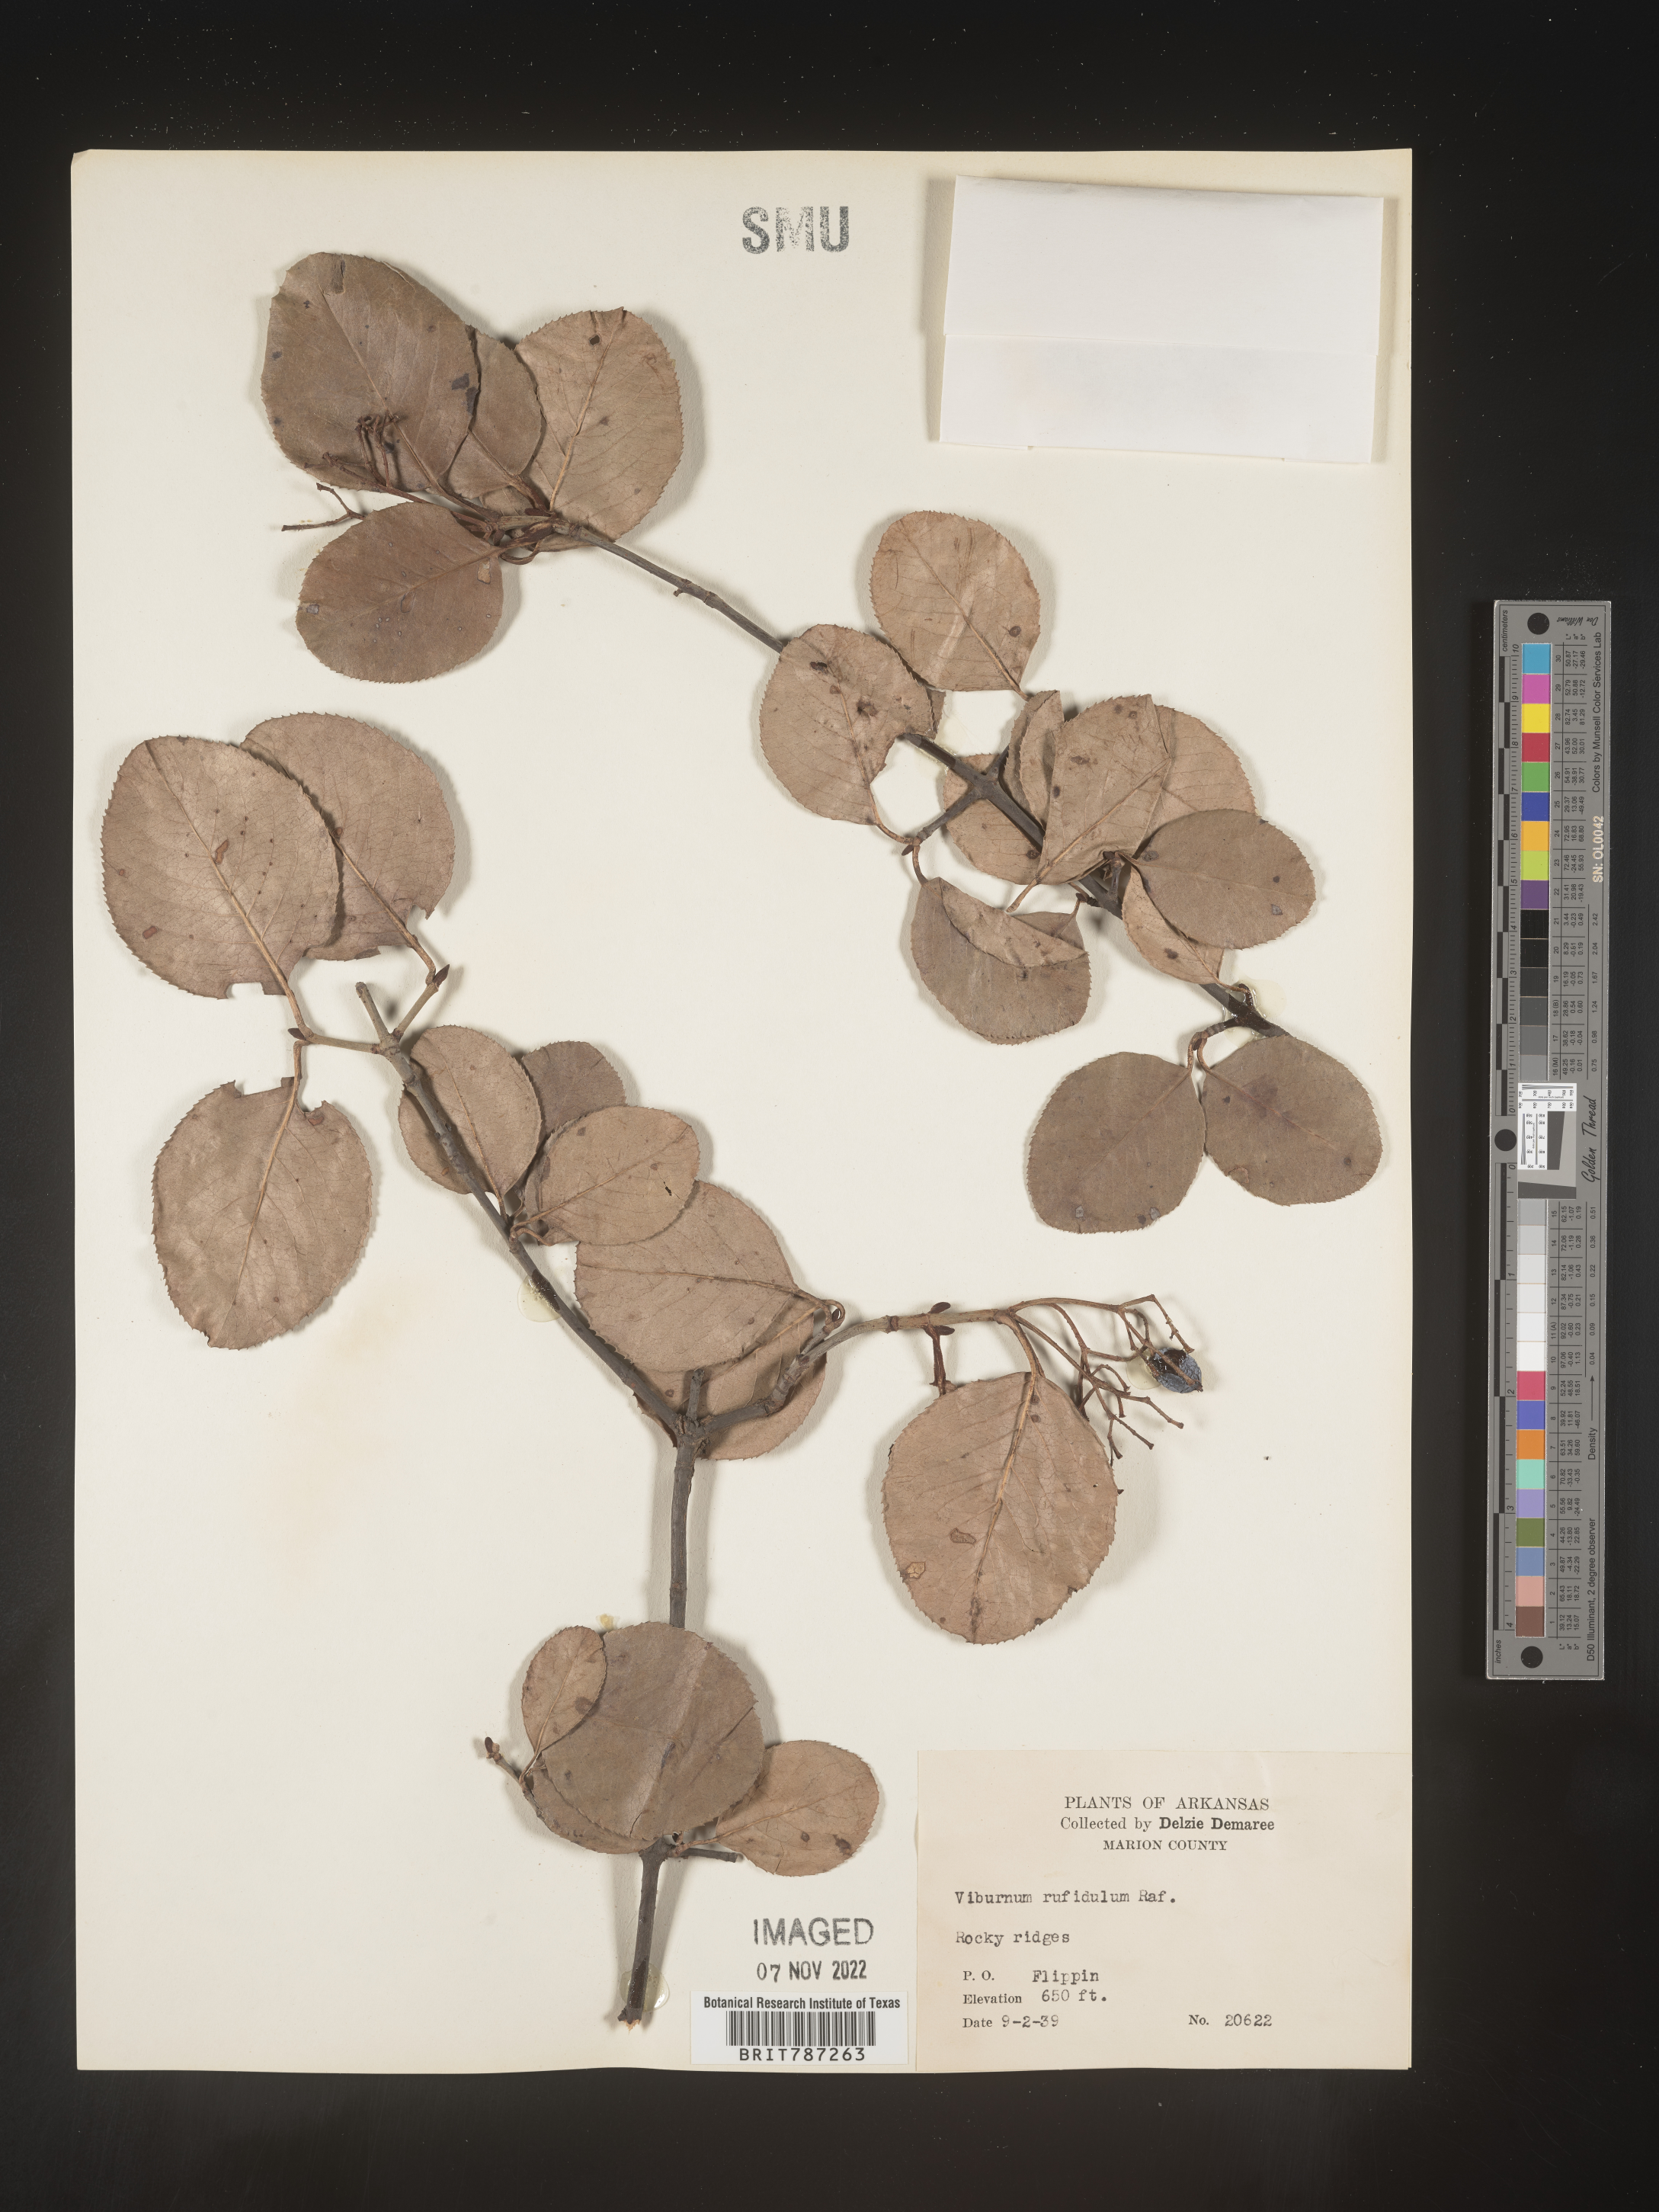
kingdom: Plantae
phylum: Tracheophyta
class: Magnoliopsida
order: Dipsacales
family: Viburnaceae
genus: Viburnum
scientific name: Viburnum rufidulum
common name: Blue haw
